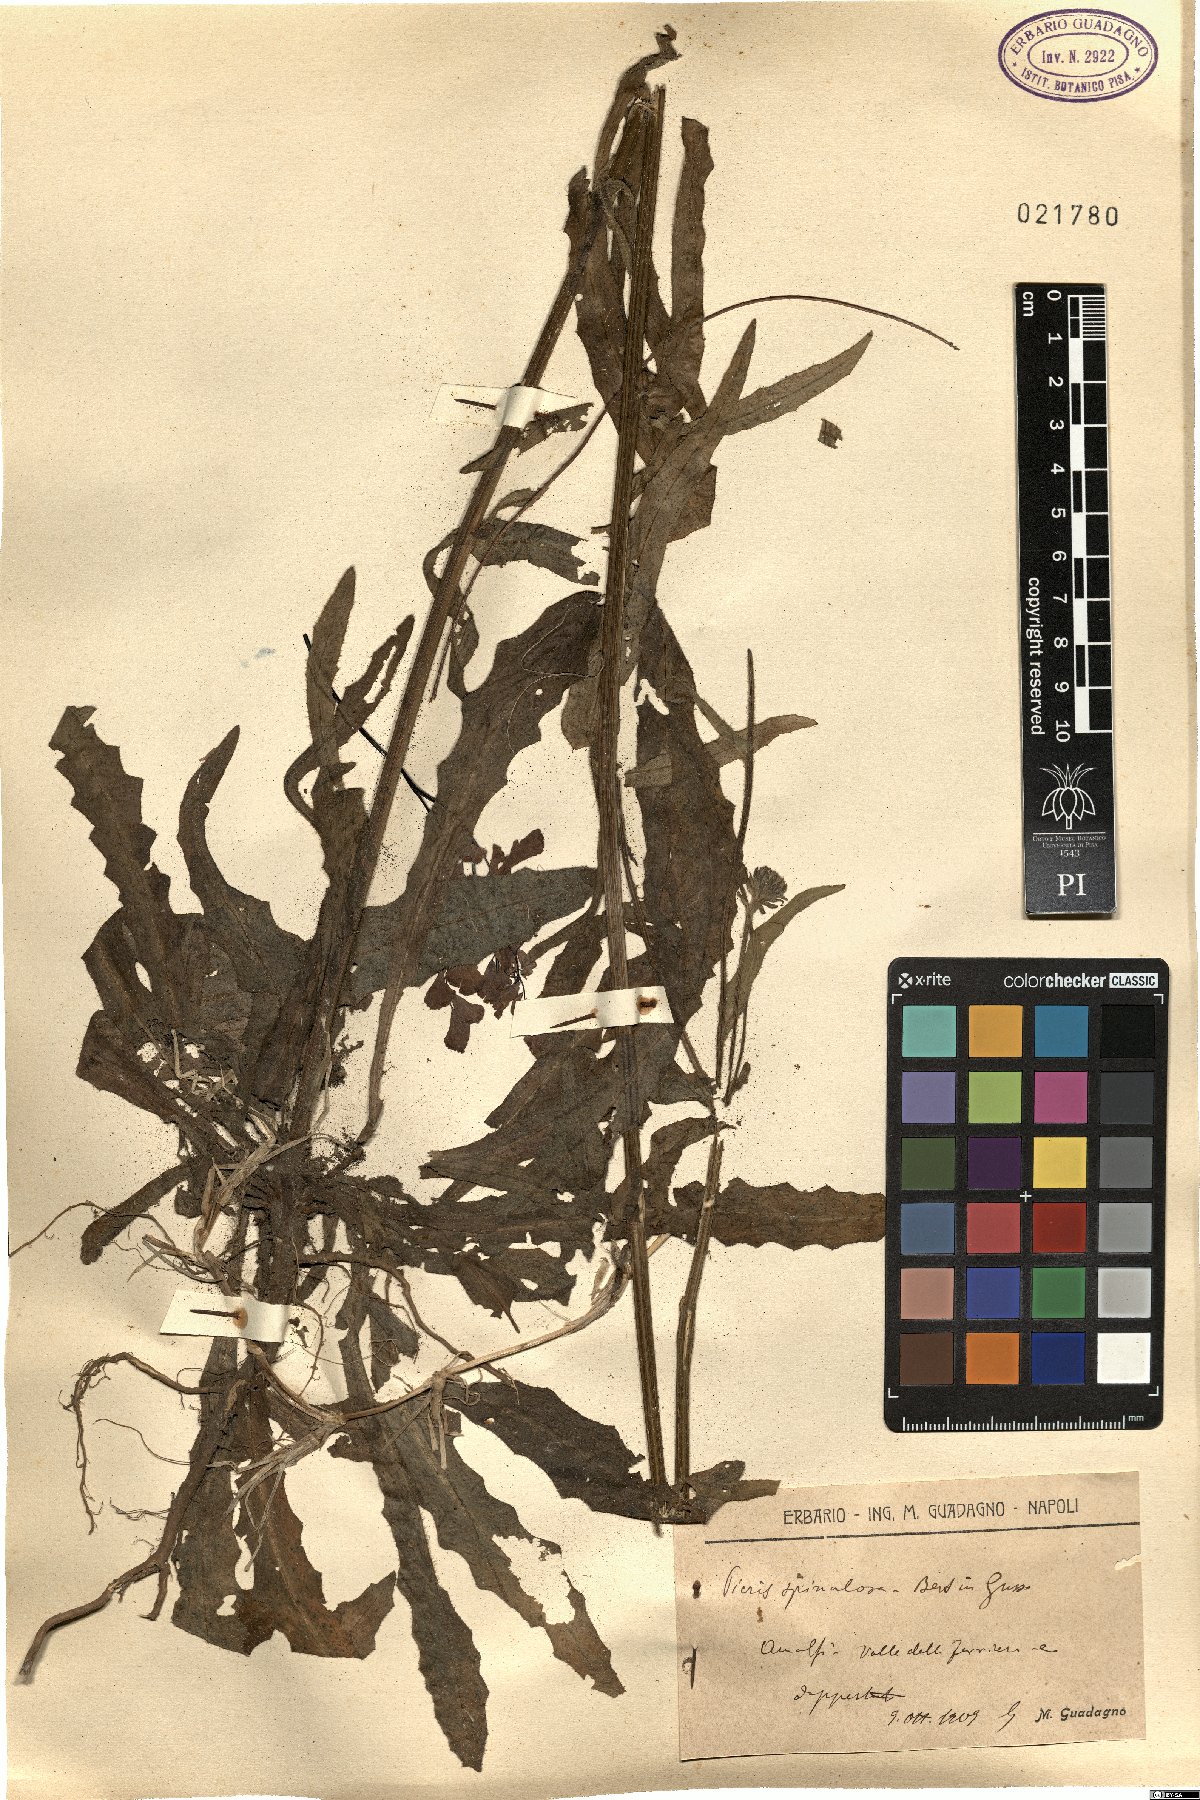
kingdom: Plantae
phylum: Tracheophyta
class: Magnoliopsida
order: Asterales
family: Asteraceae
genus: Picris
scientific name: Picris hieracioides
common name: Hawkweed oxtongue
